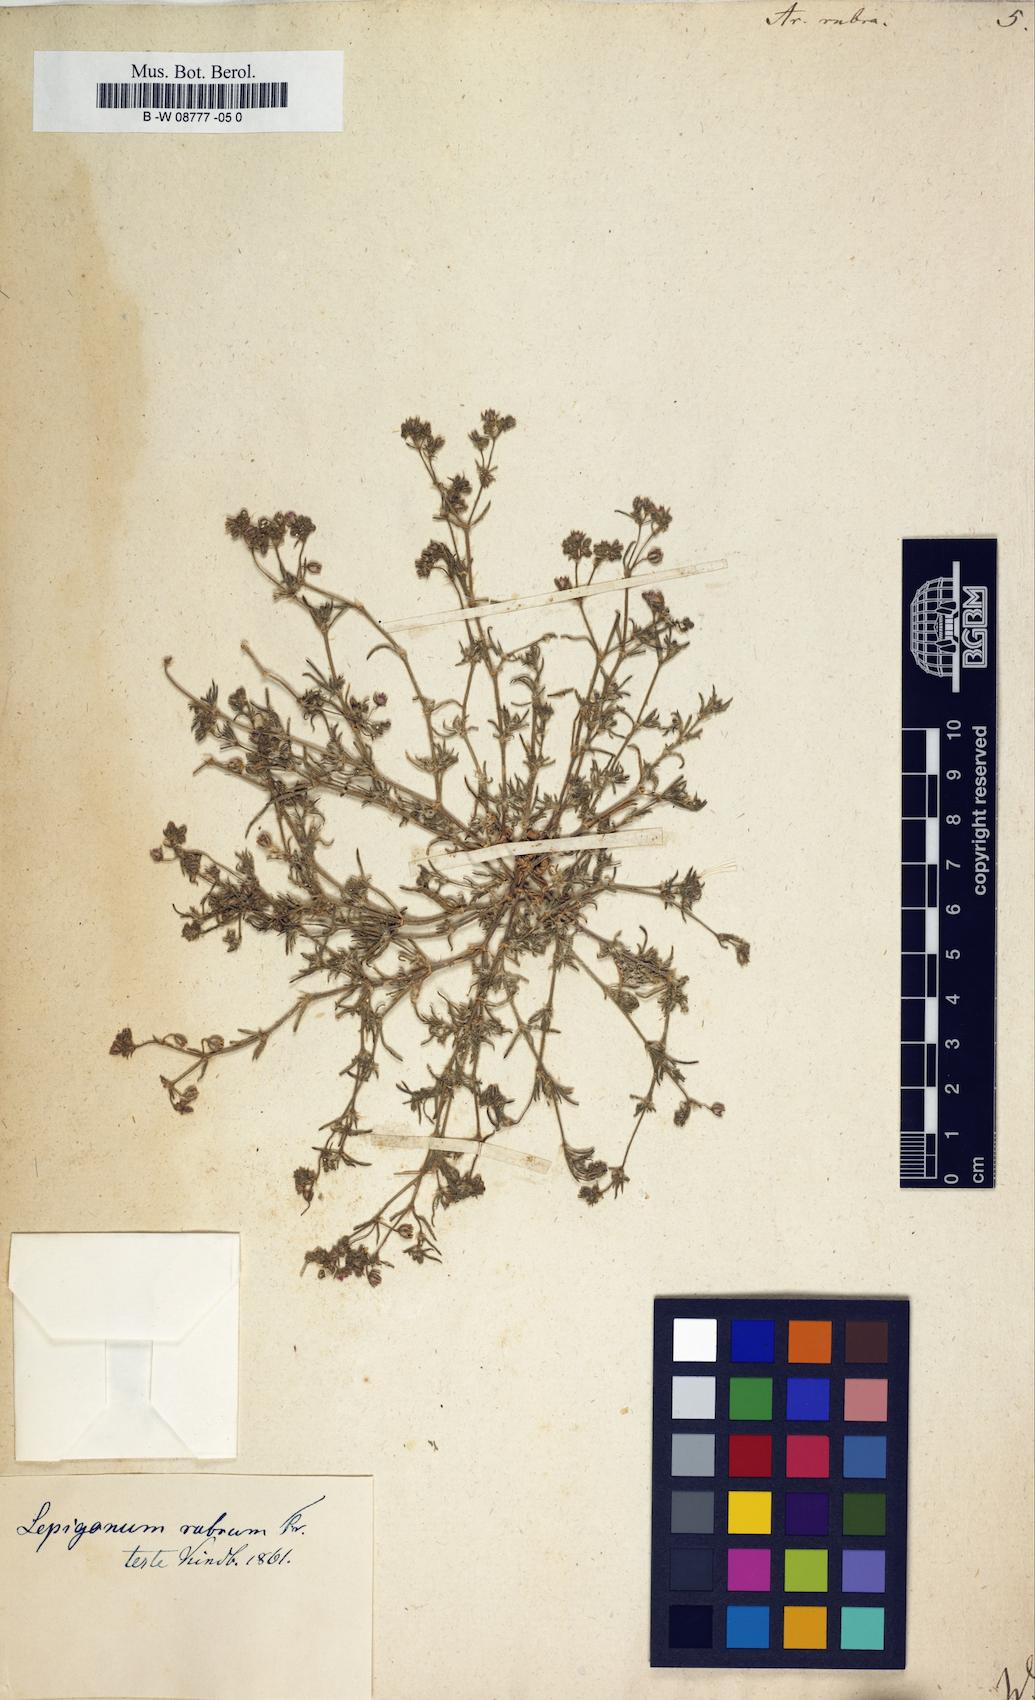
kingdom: Plantae
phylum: Tracheophyta
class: Magnoliopsida
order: Caryophyllales
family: Caryophyllaceae
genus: Spergularia
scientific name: Spergularia rubra
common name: Red sand-spurrey
